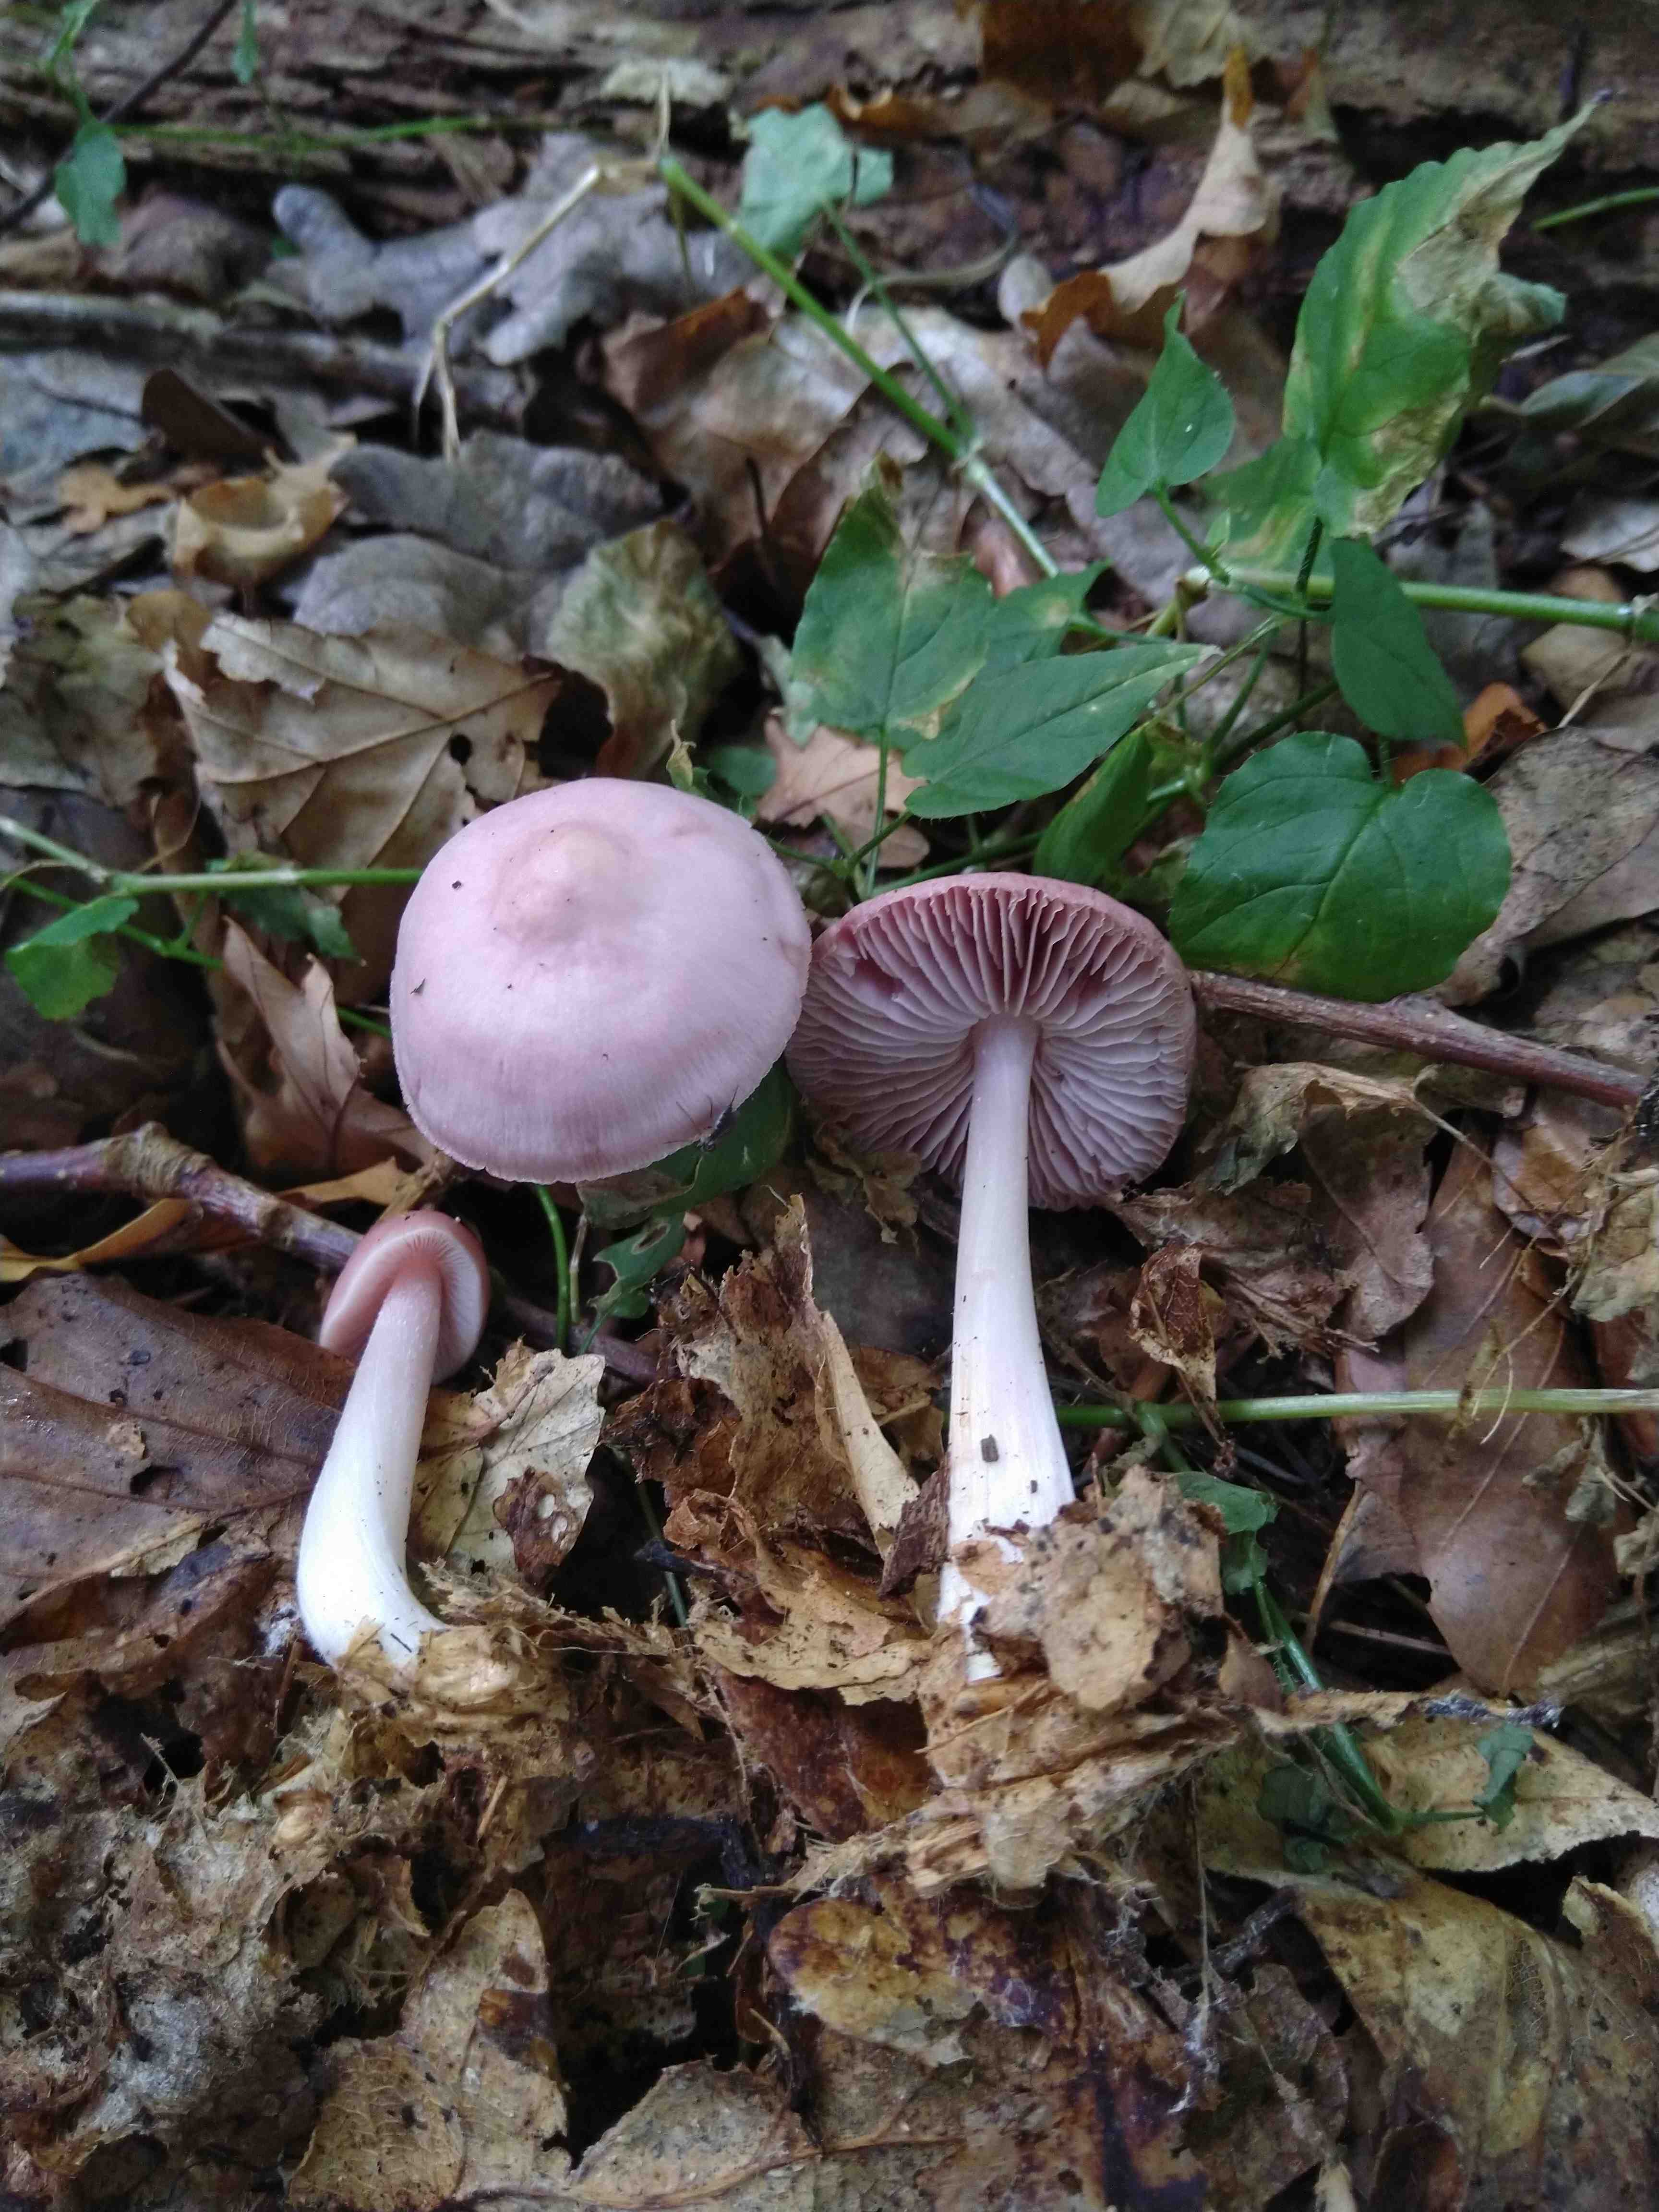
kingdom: Fungi
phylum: Basidiomycota
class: Agaricomycetes
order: Agaricales
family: Mycenaceae
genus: Mycena
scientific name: Mycena rosea
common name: rosa huesvamp
